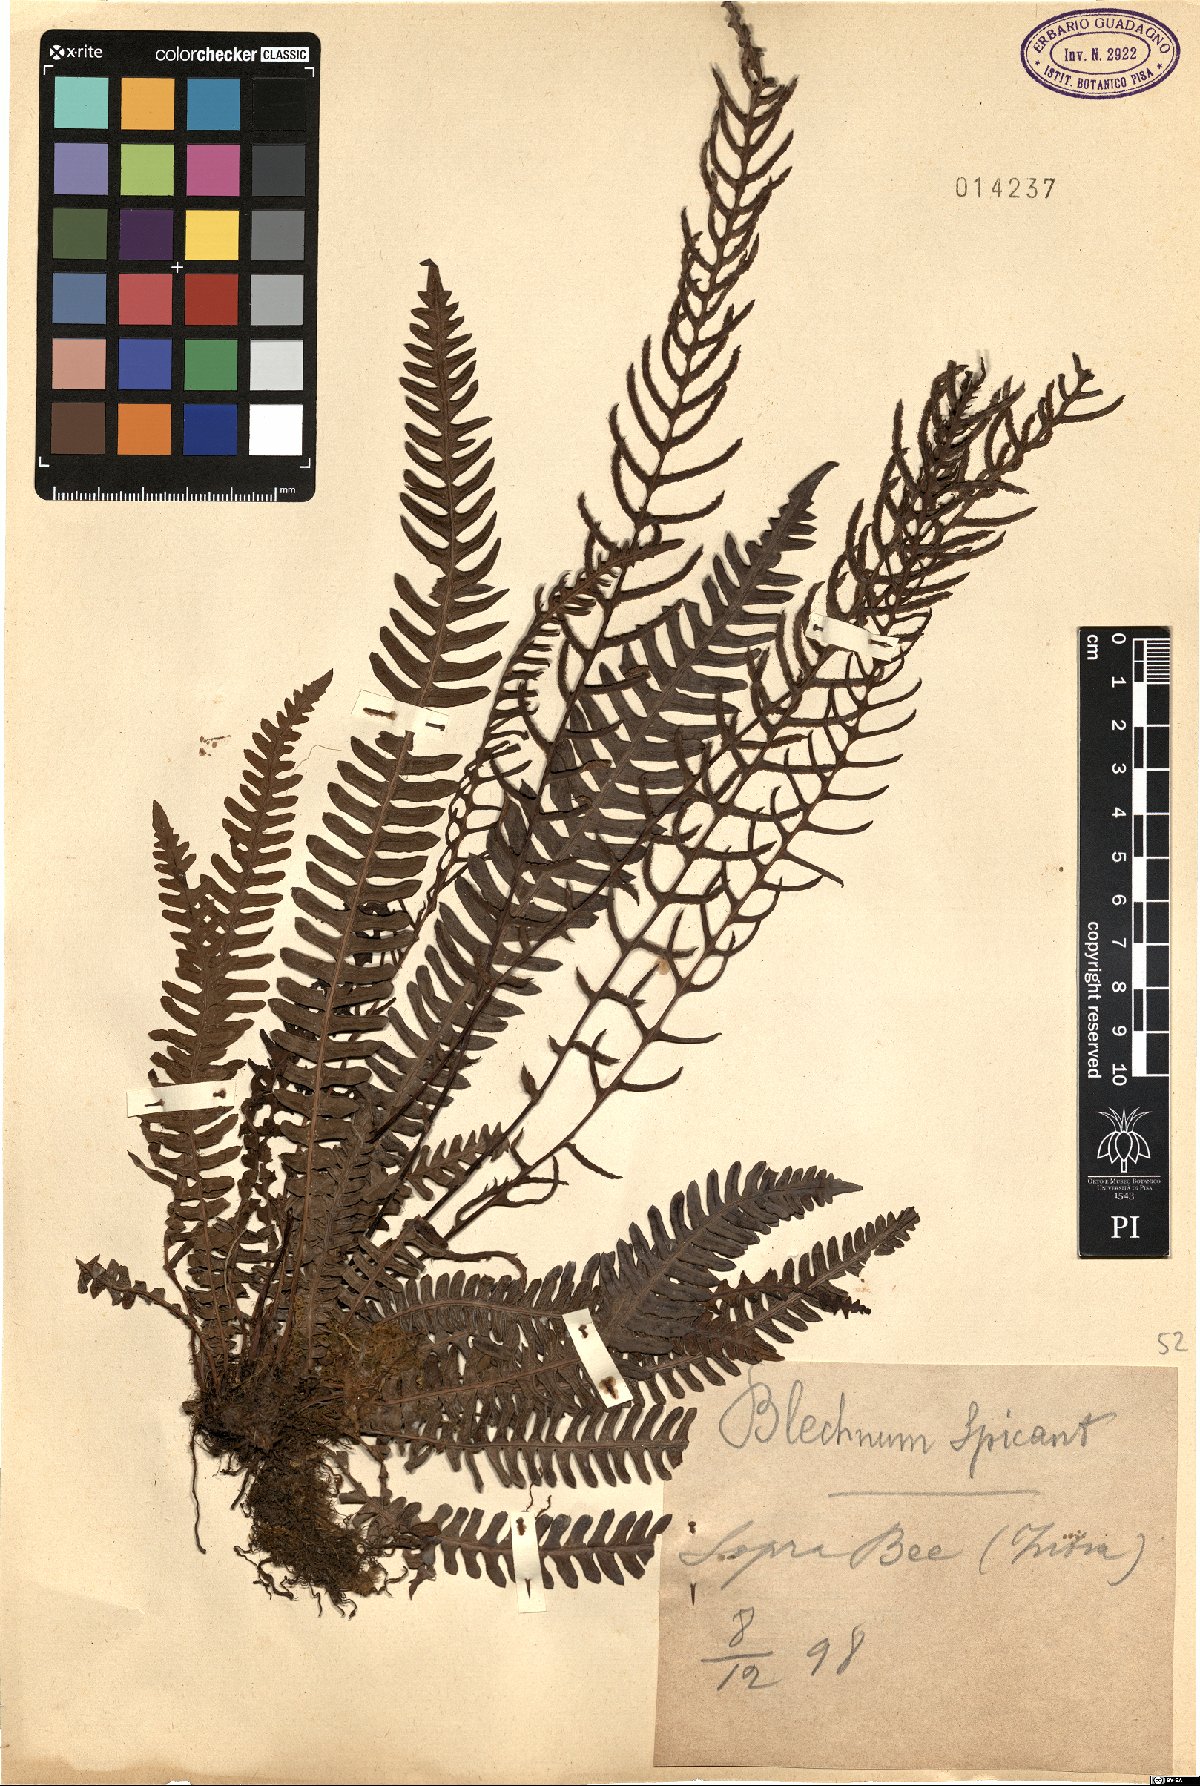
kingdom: Plantae
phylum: Tracheophyta
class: Polypodiopsida
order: Polypodiales
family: Blechnaceae
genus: Struthiopteris
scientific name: Struthiopteris spicant
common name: Deer fern
